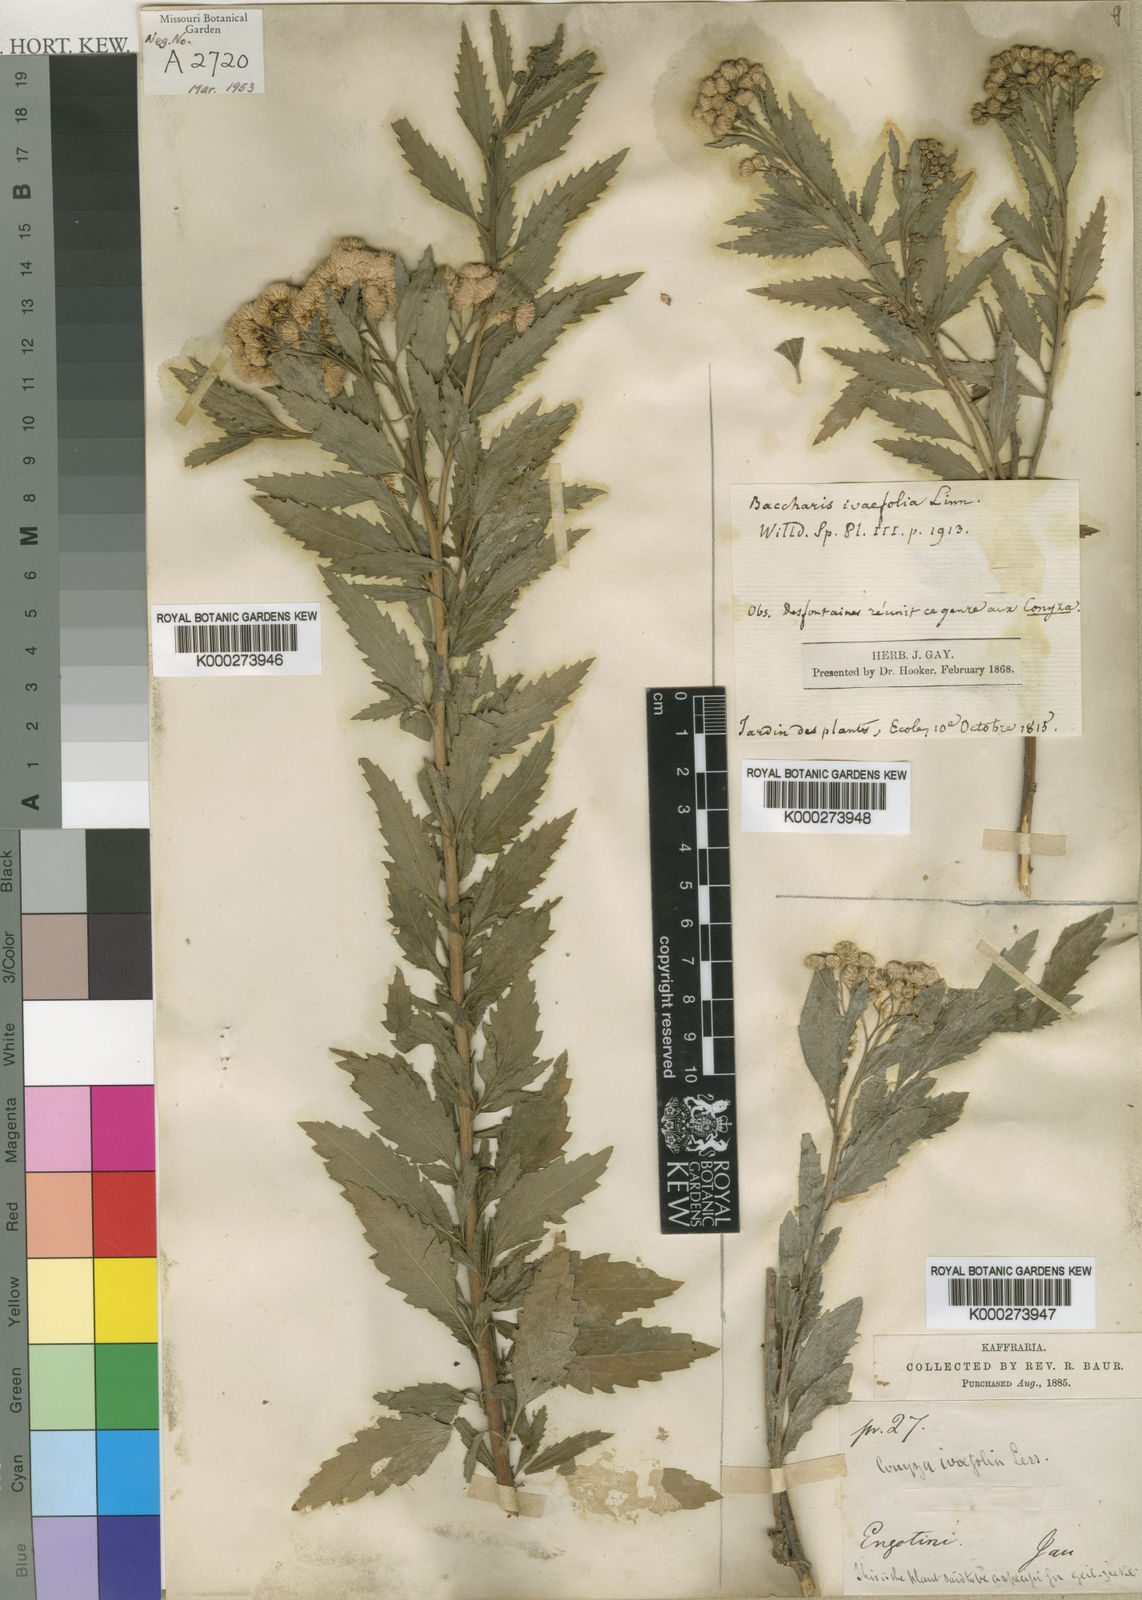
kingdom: Plantae
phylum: Tracheophyta
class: Magnoliopsida
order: Asterales
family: Asteraceae
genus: Nidorella
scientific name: Nidorella ivifolia
